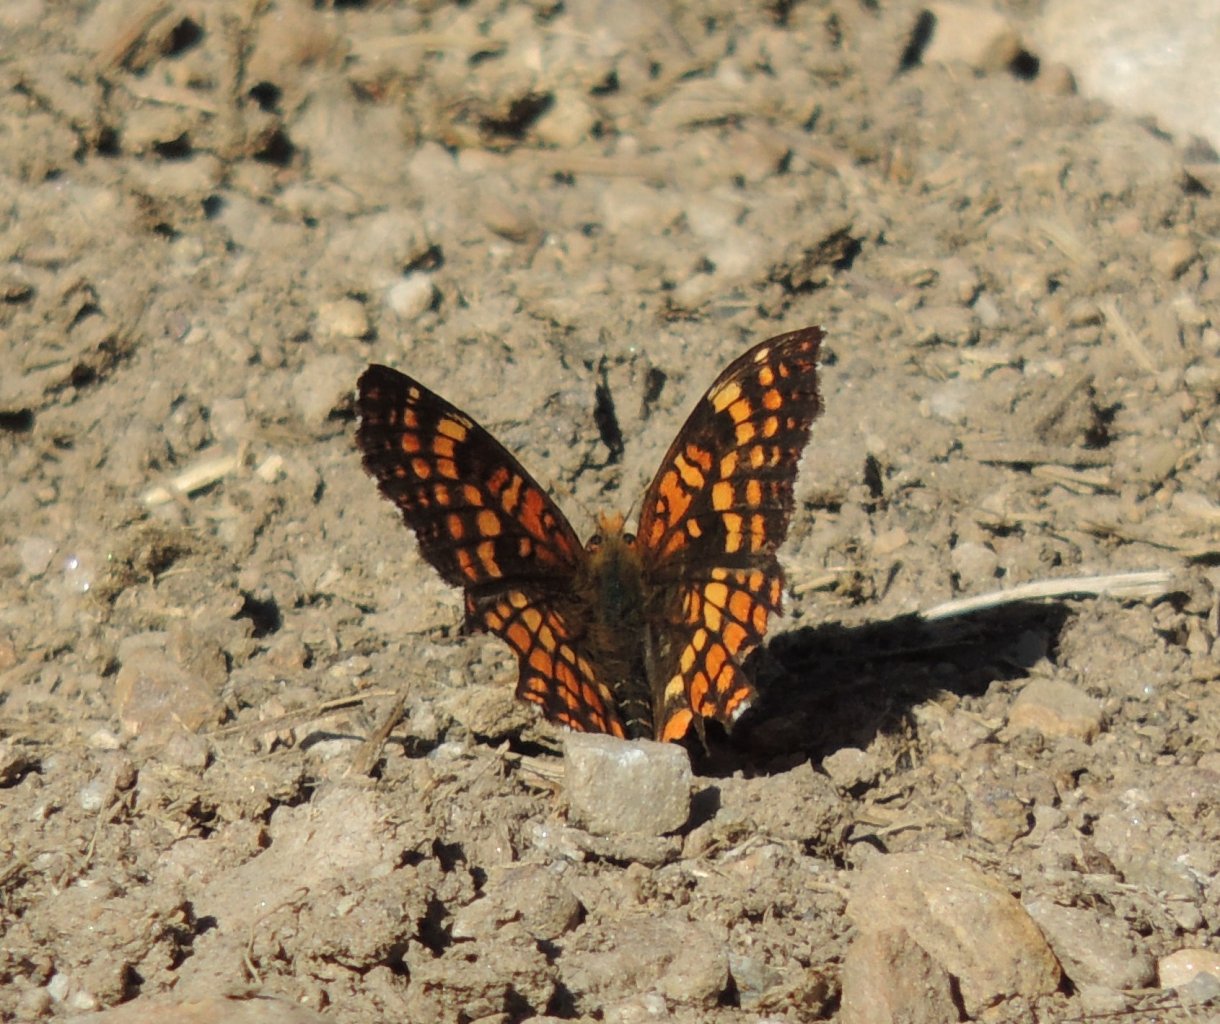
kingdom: Animalia
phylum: Arthropoda
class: Insecta
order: Lepidoptera
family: Nymphalidae
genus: Chlosyne
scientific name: Chlosyne palla
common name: Northern Checkerspot
